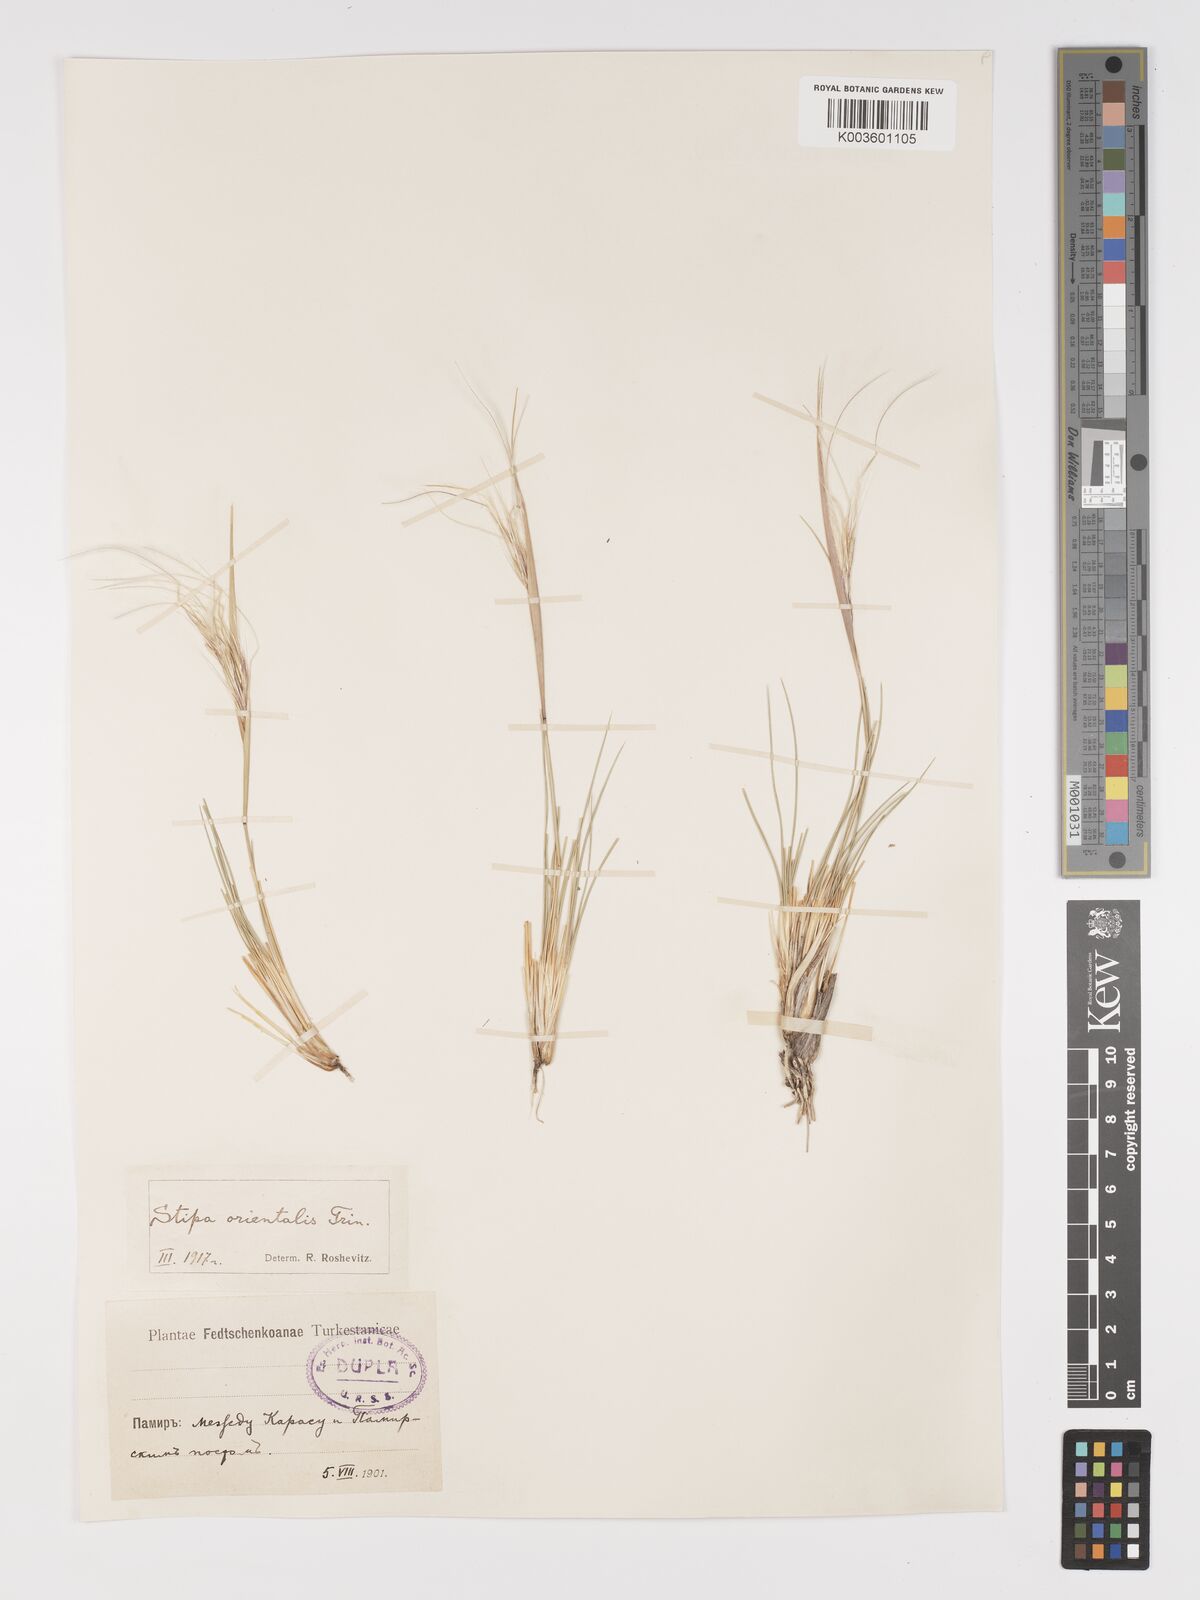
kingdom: Plantae
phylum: Tracheophyta
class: Liliopsida
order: Poales
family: Poaceae
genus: Stipa
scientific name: Stipa orientalis
